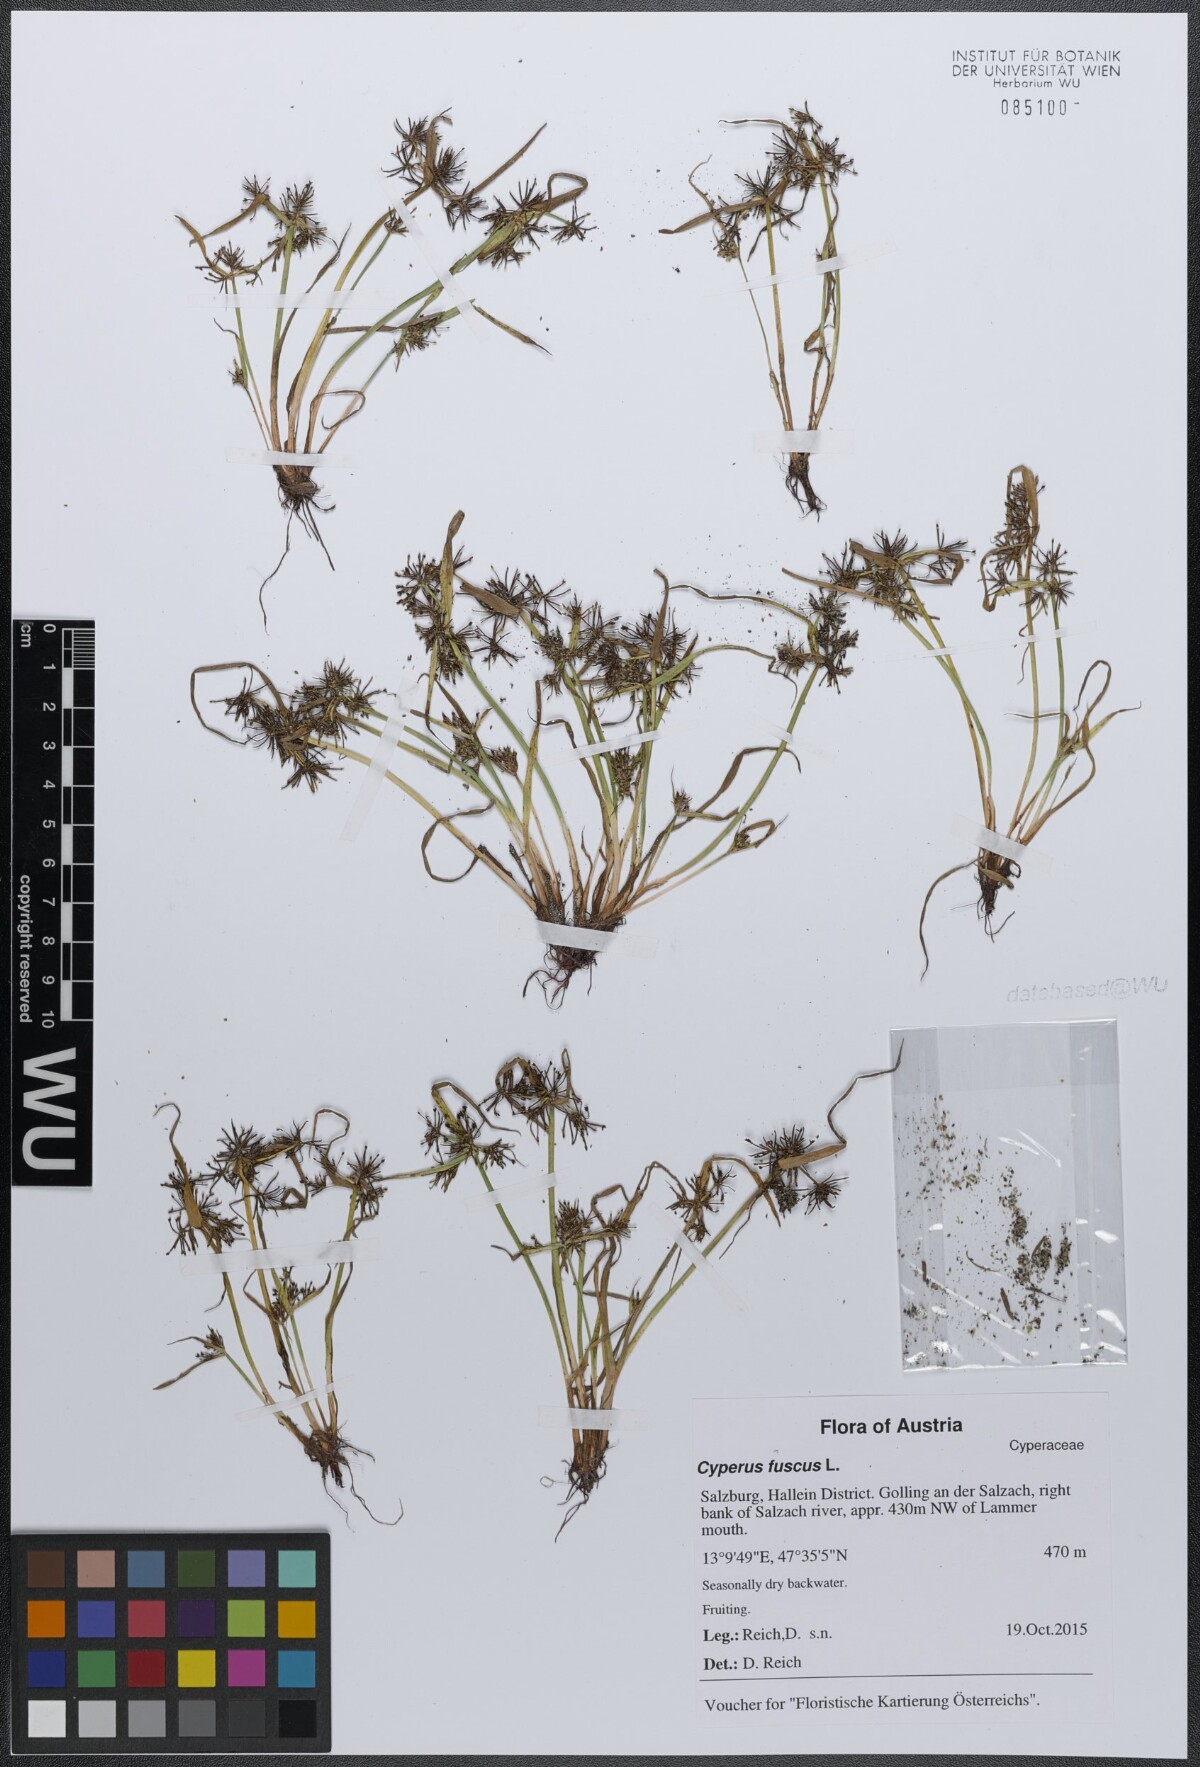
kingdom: Plantae
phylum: Tracheophyta
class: Liliopsida
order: Poales
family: Cyperaceae
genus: Cyperus
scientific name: Cyperus fuscus
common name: Brown galingale
